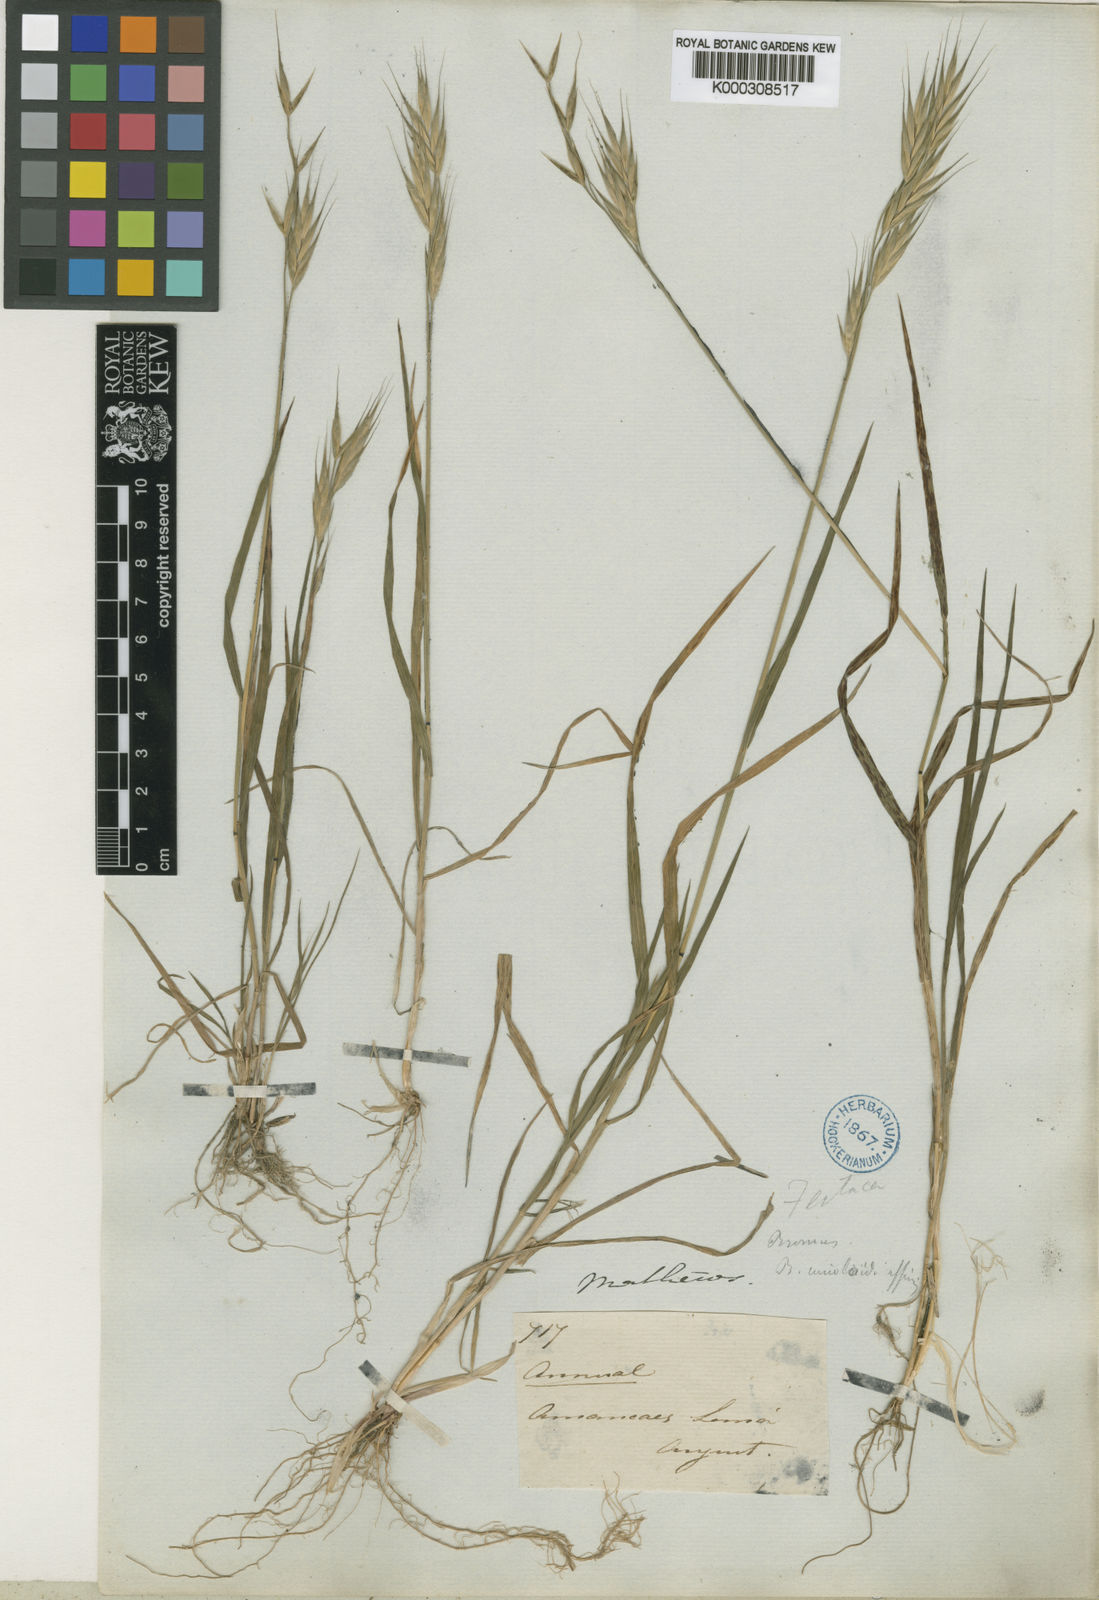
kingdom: Plantae
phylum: Tracheophyta
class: Liliopsida
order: Poales
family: Poaceae
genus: Bromus
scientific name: Bromus catharticus
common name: Rescuegrass
